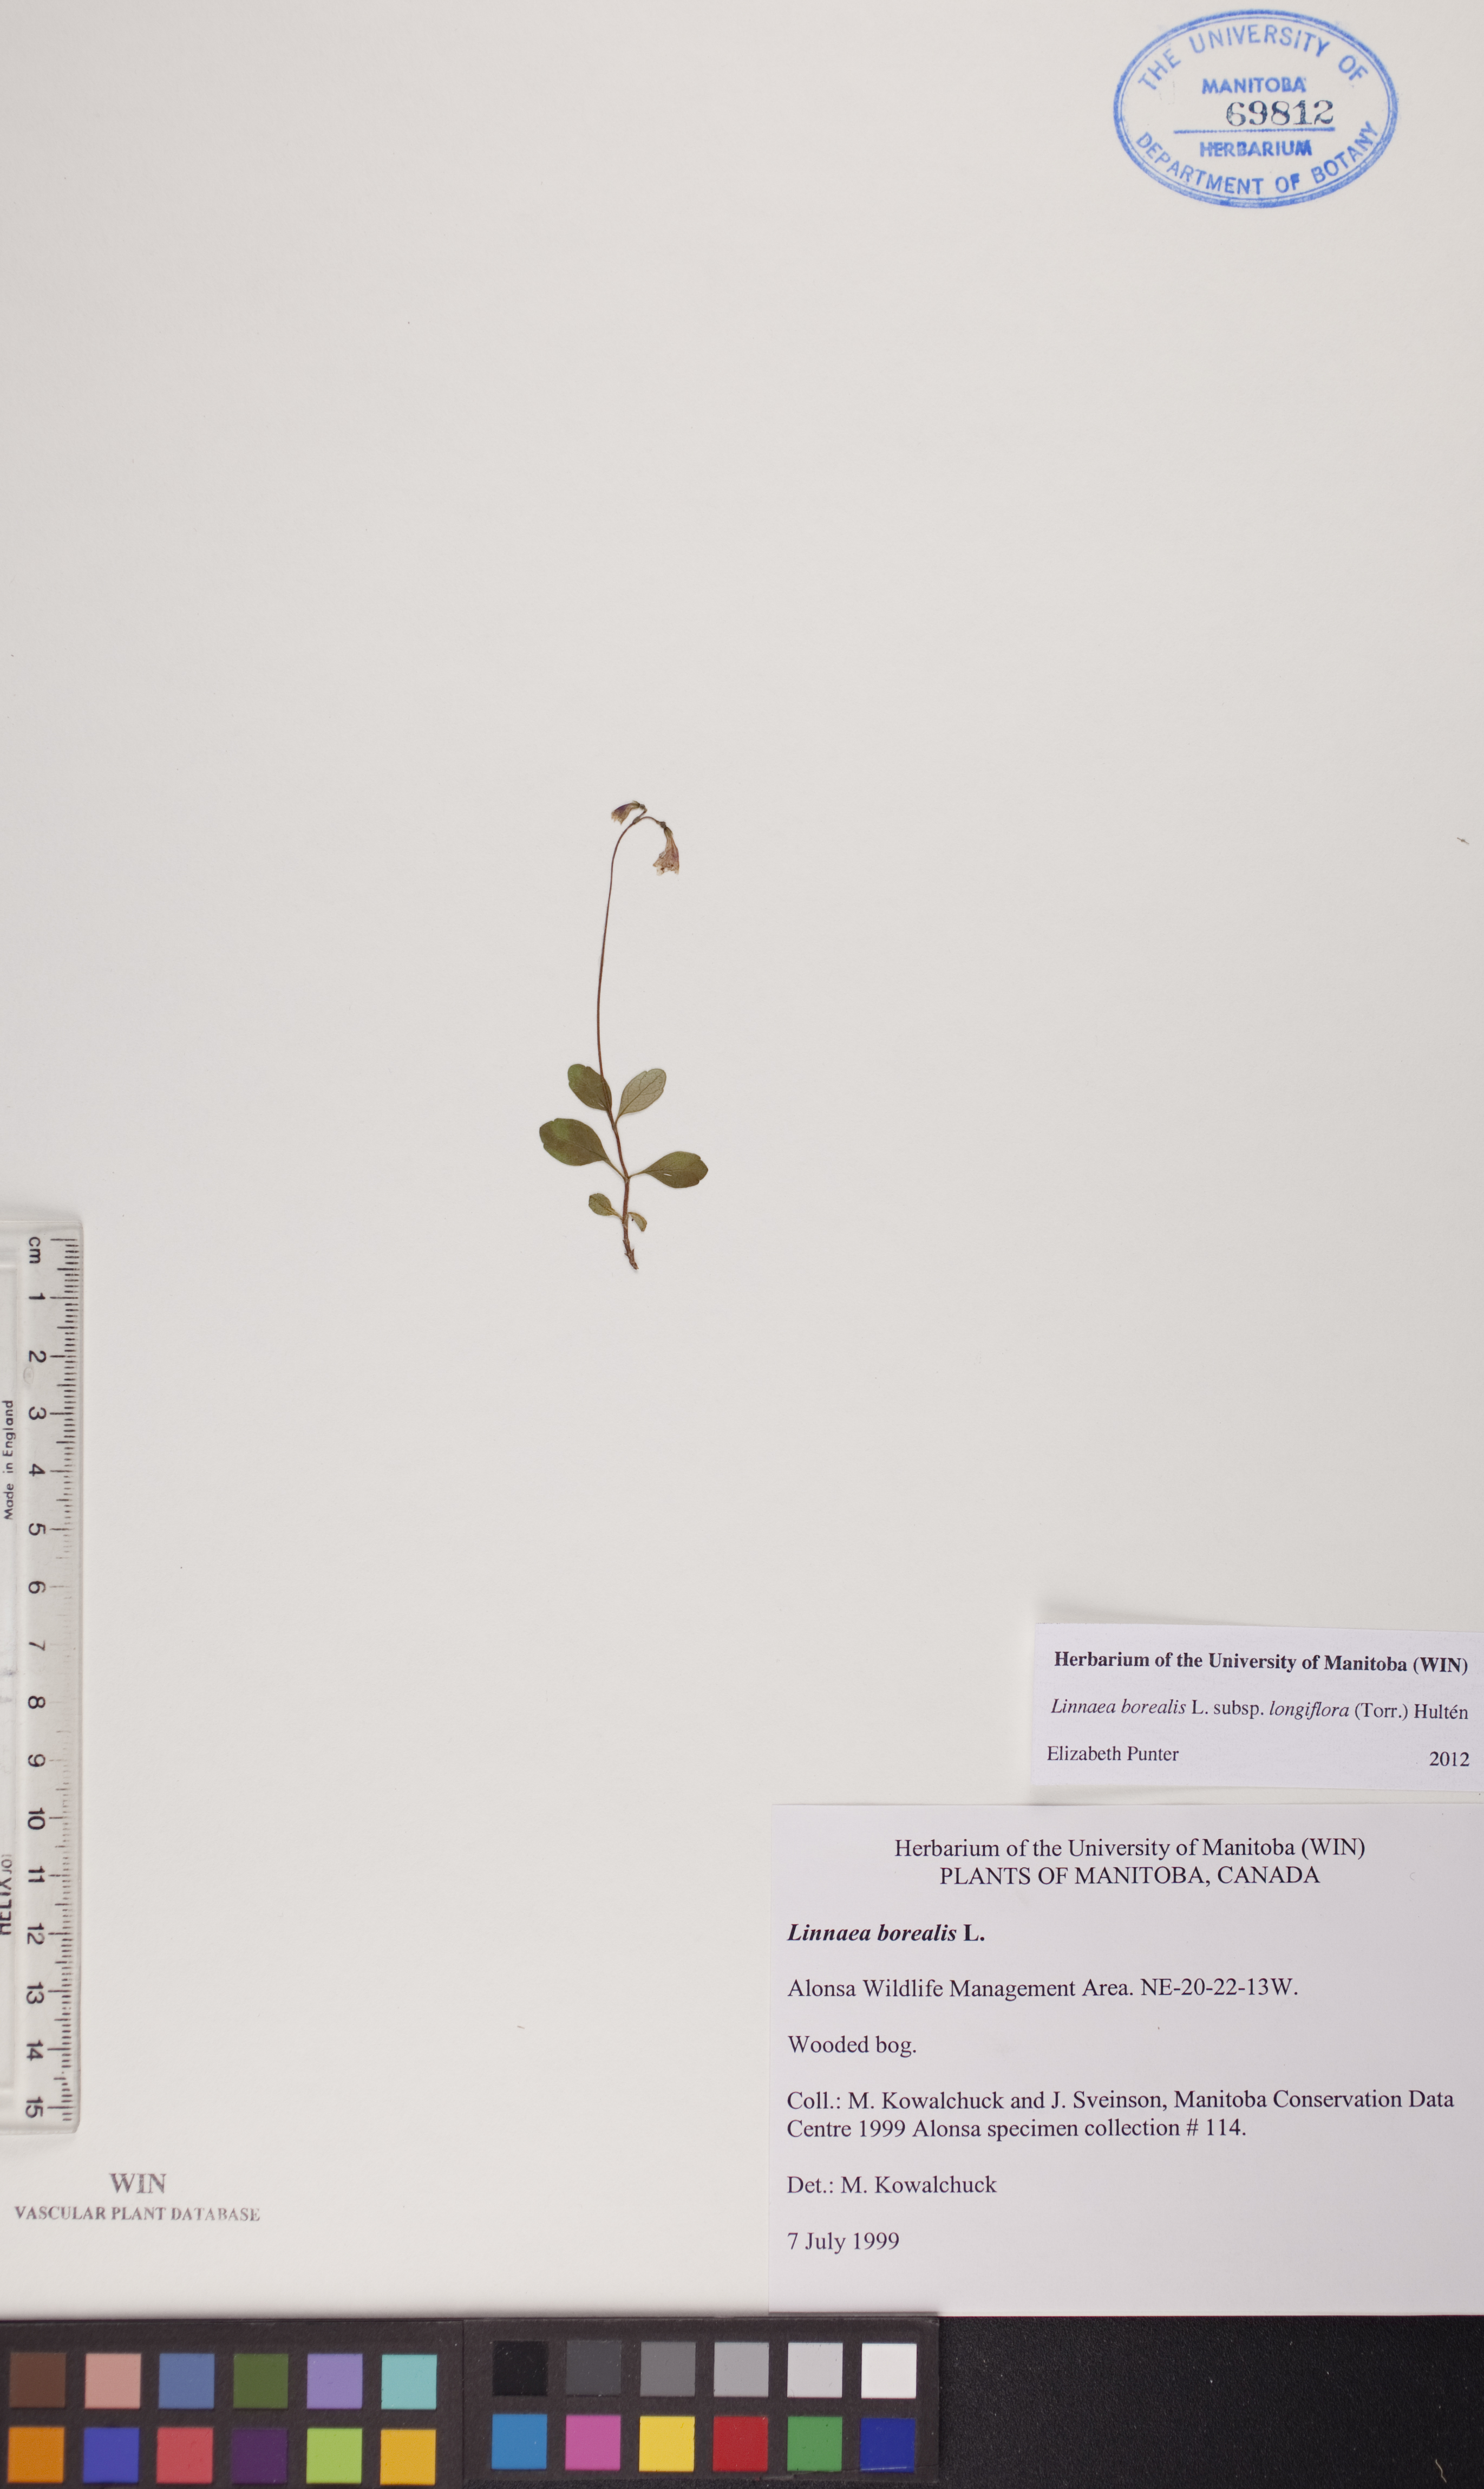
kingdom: Plantae
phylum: Tracheophyta
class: Magnoliopsida
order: Dipsacales
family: Caprifoliaceae
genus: Linnaea
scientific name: Linnaea borealis
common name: Twinflower
